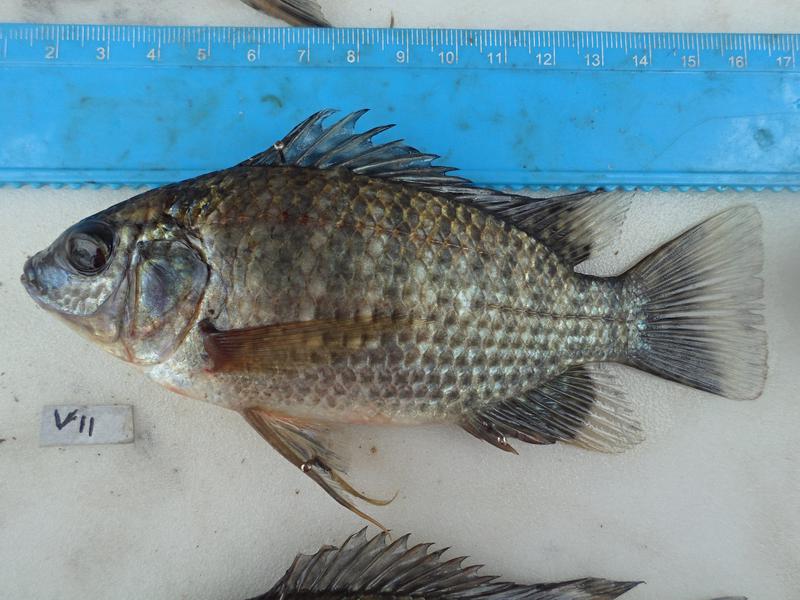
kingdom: Animalia
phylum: Chordata
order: Perciformes
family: Cichlidae
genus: Oreochromis
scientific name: Oreochromis leucostictus
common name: Blue spotted tilapia
